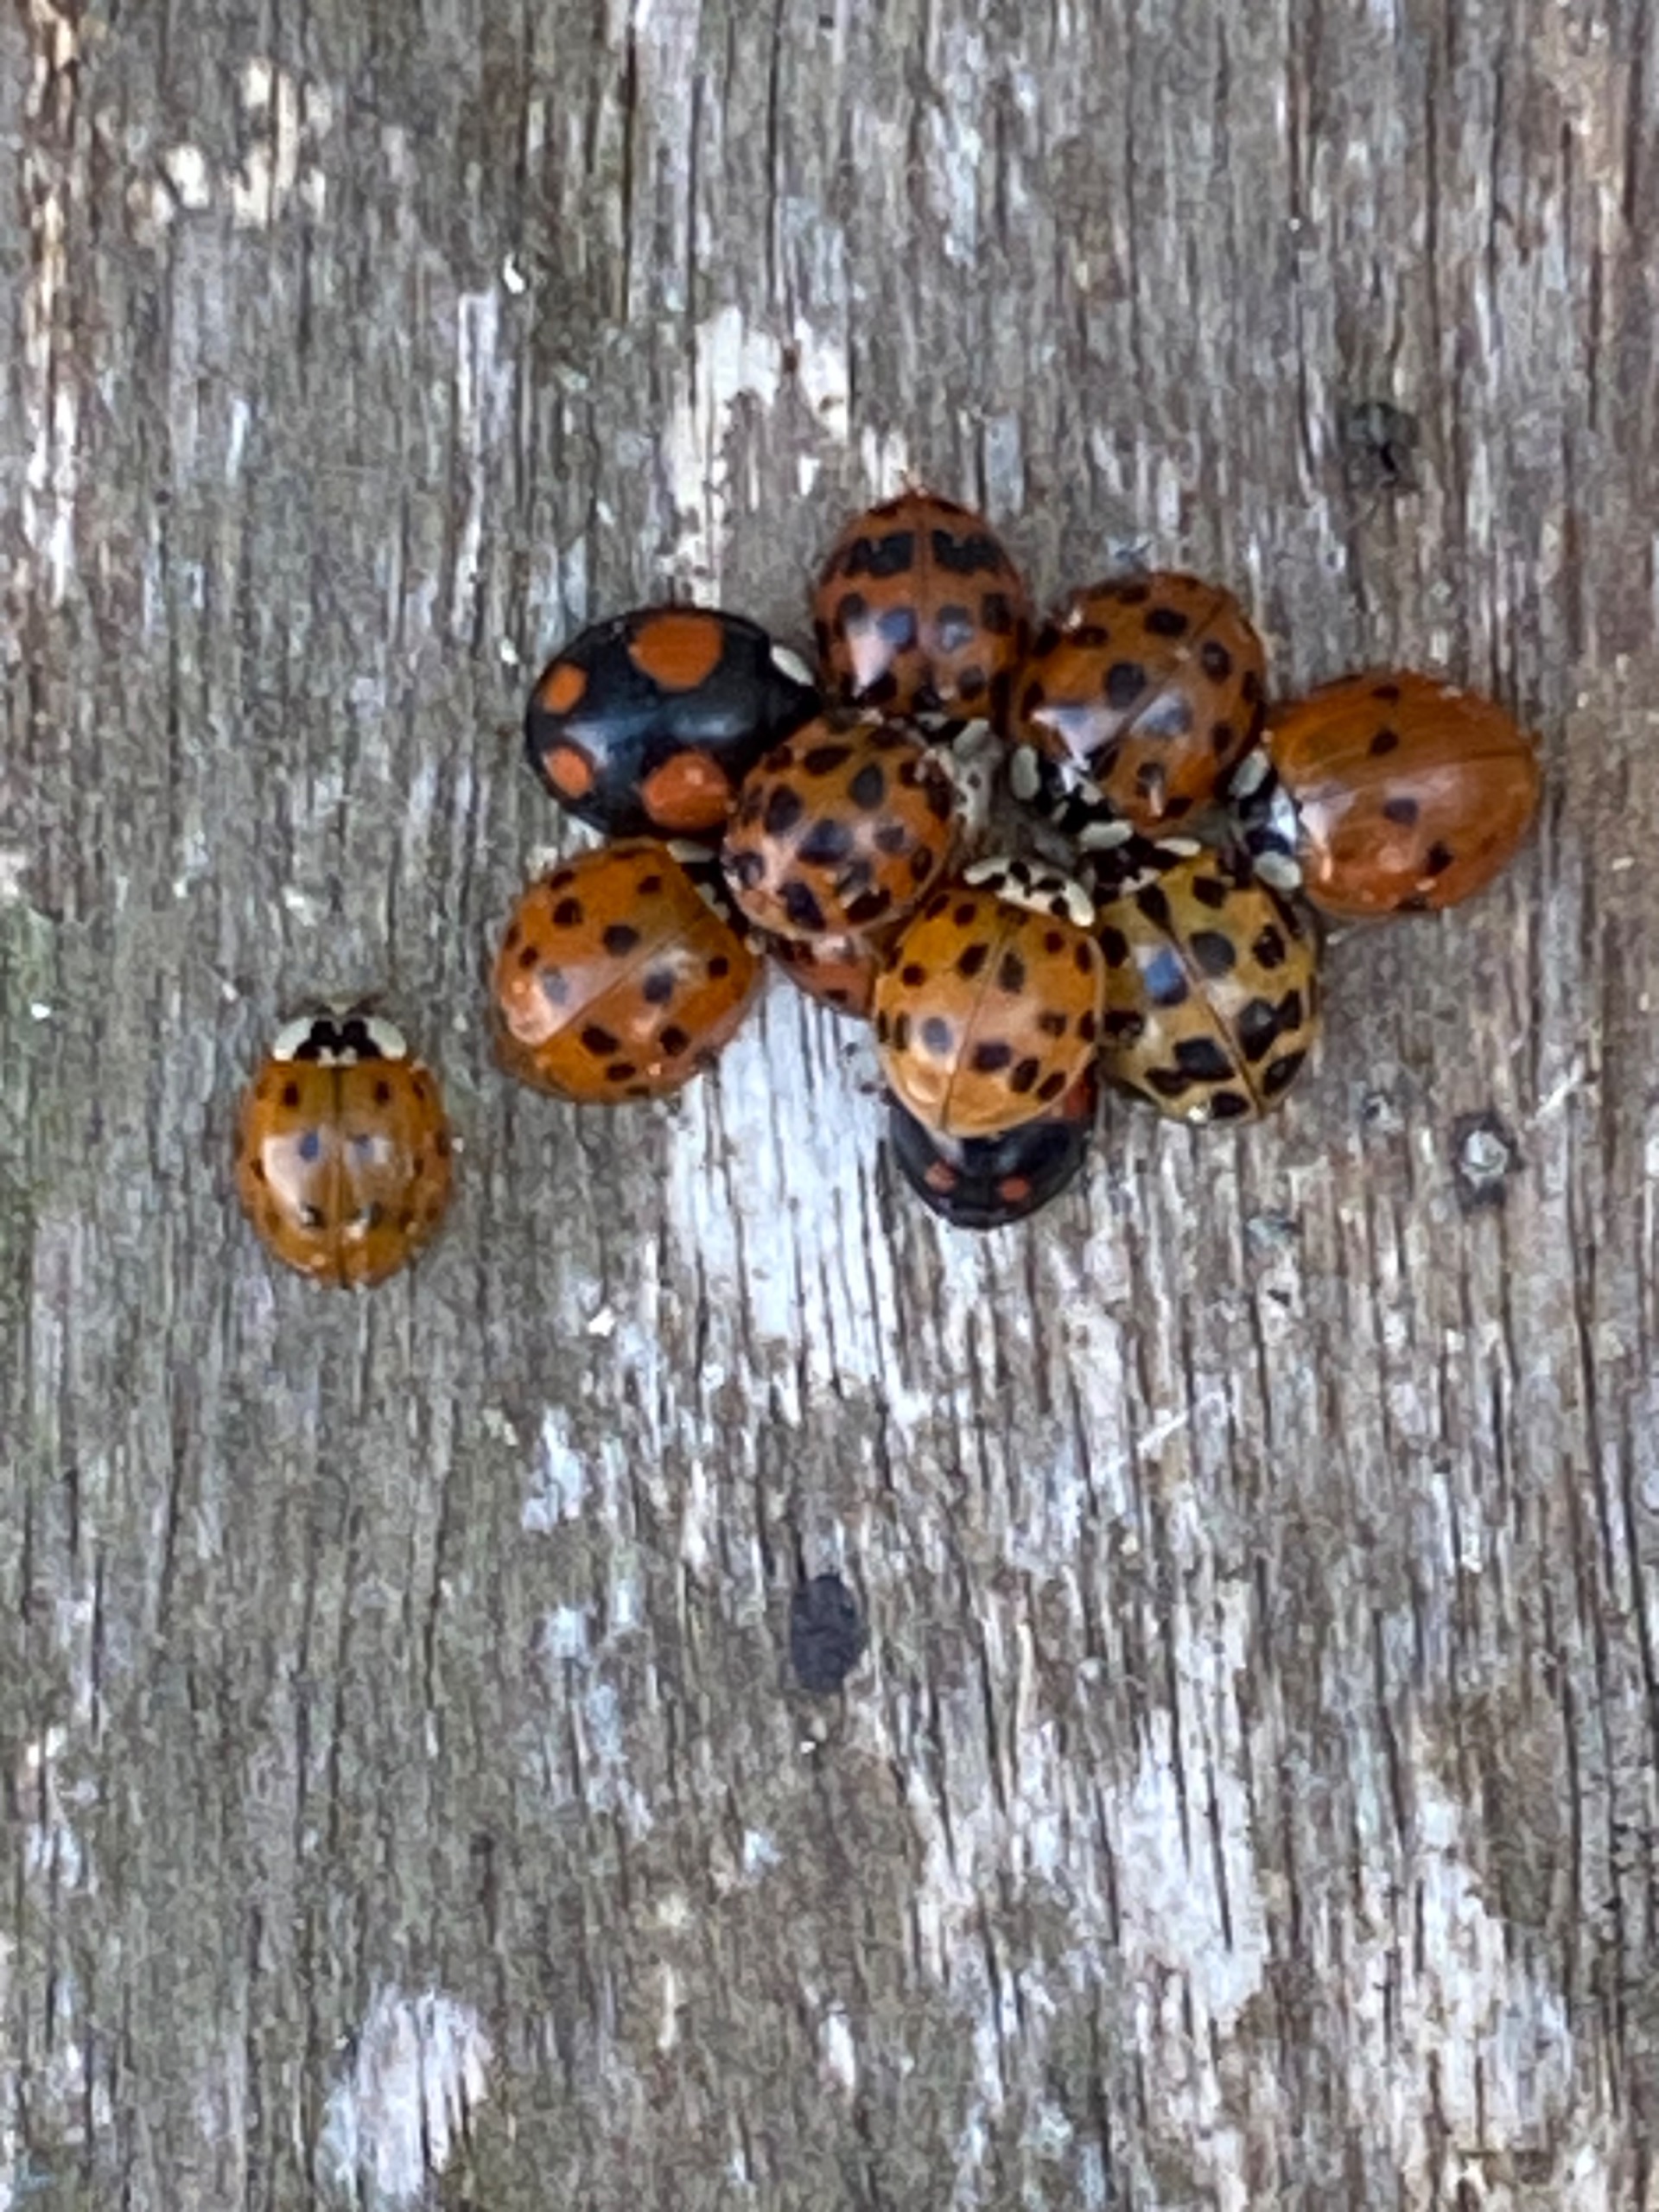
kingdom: Animalia
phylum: Arthropoda
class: Insecta
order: Coleoptera
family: Coccinellidae
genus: Harmonia
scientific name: Harmonia axyridis
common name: Harlekinmariehøne
